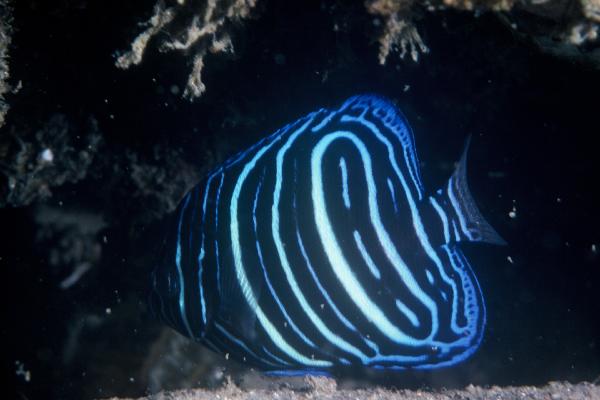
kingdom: Animalia
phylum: Chordata
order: Perciformes
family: Pomacanthidae
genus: Pomacanthus
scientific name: Pomacanthus rhomboides
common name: Old woman
